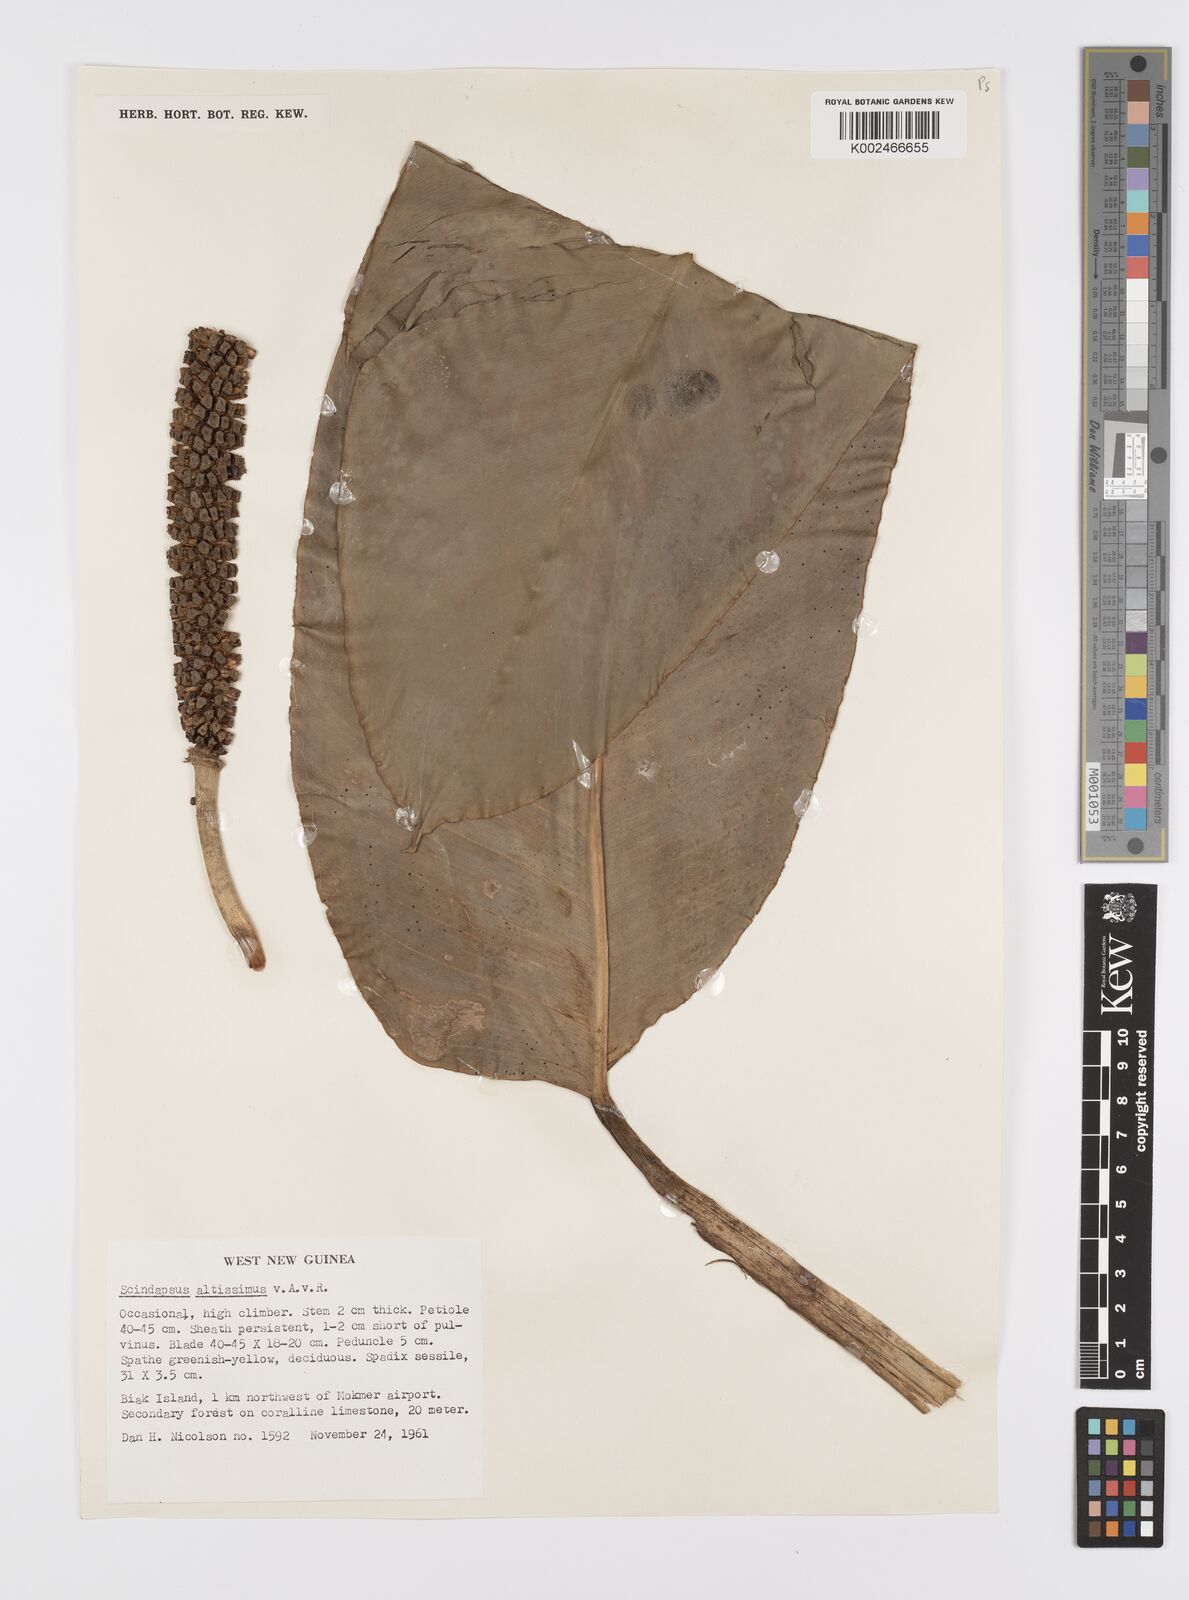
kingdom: Plantae
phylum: Tracheophyta
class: Liliopsida
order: Alismatales
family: Araceae
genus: Scindapsus
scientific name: Scindapsus altissimus
